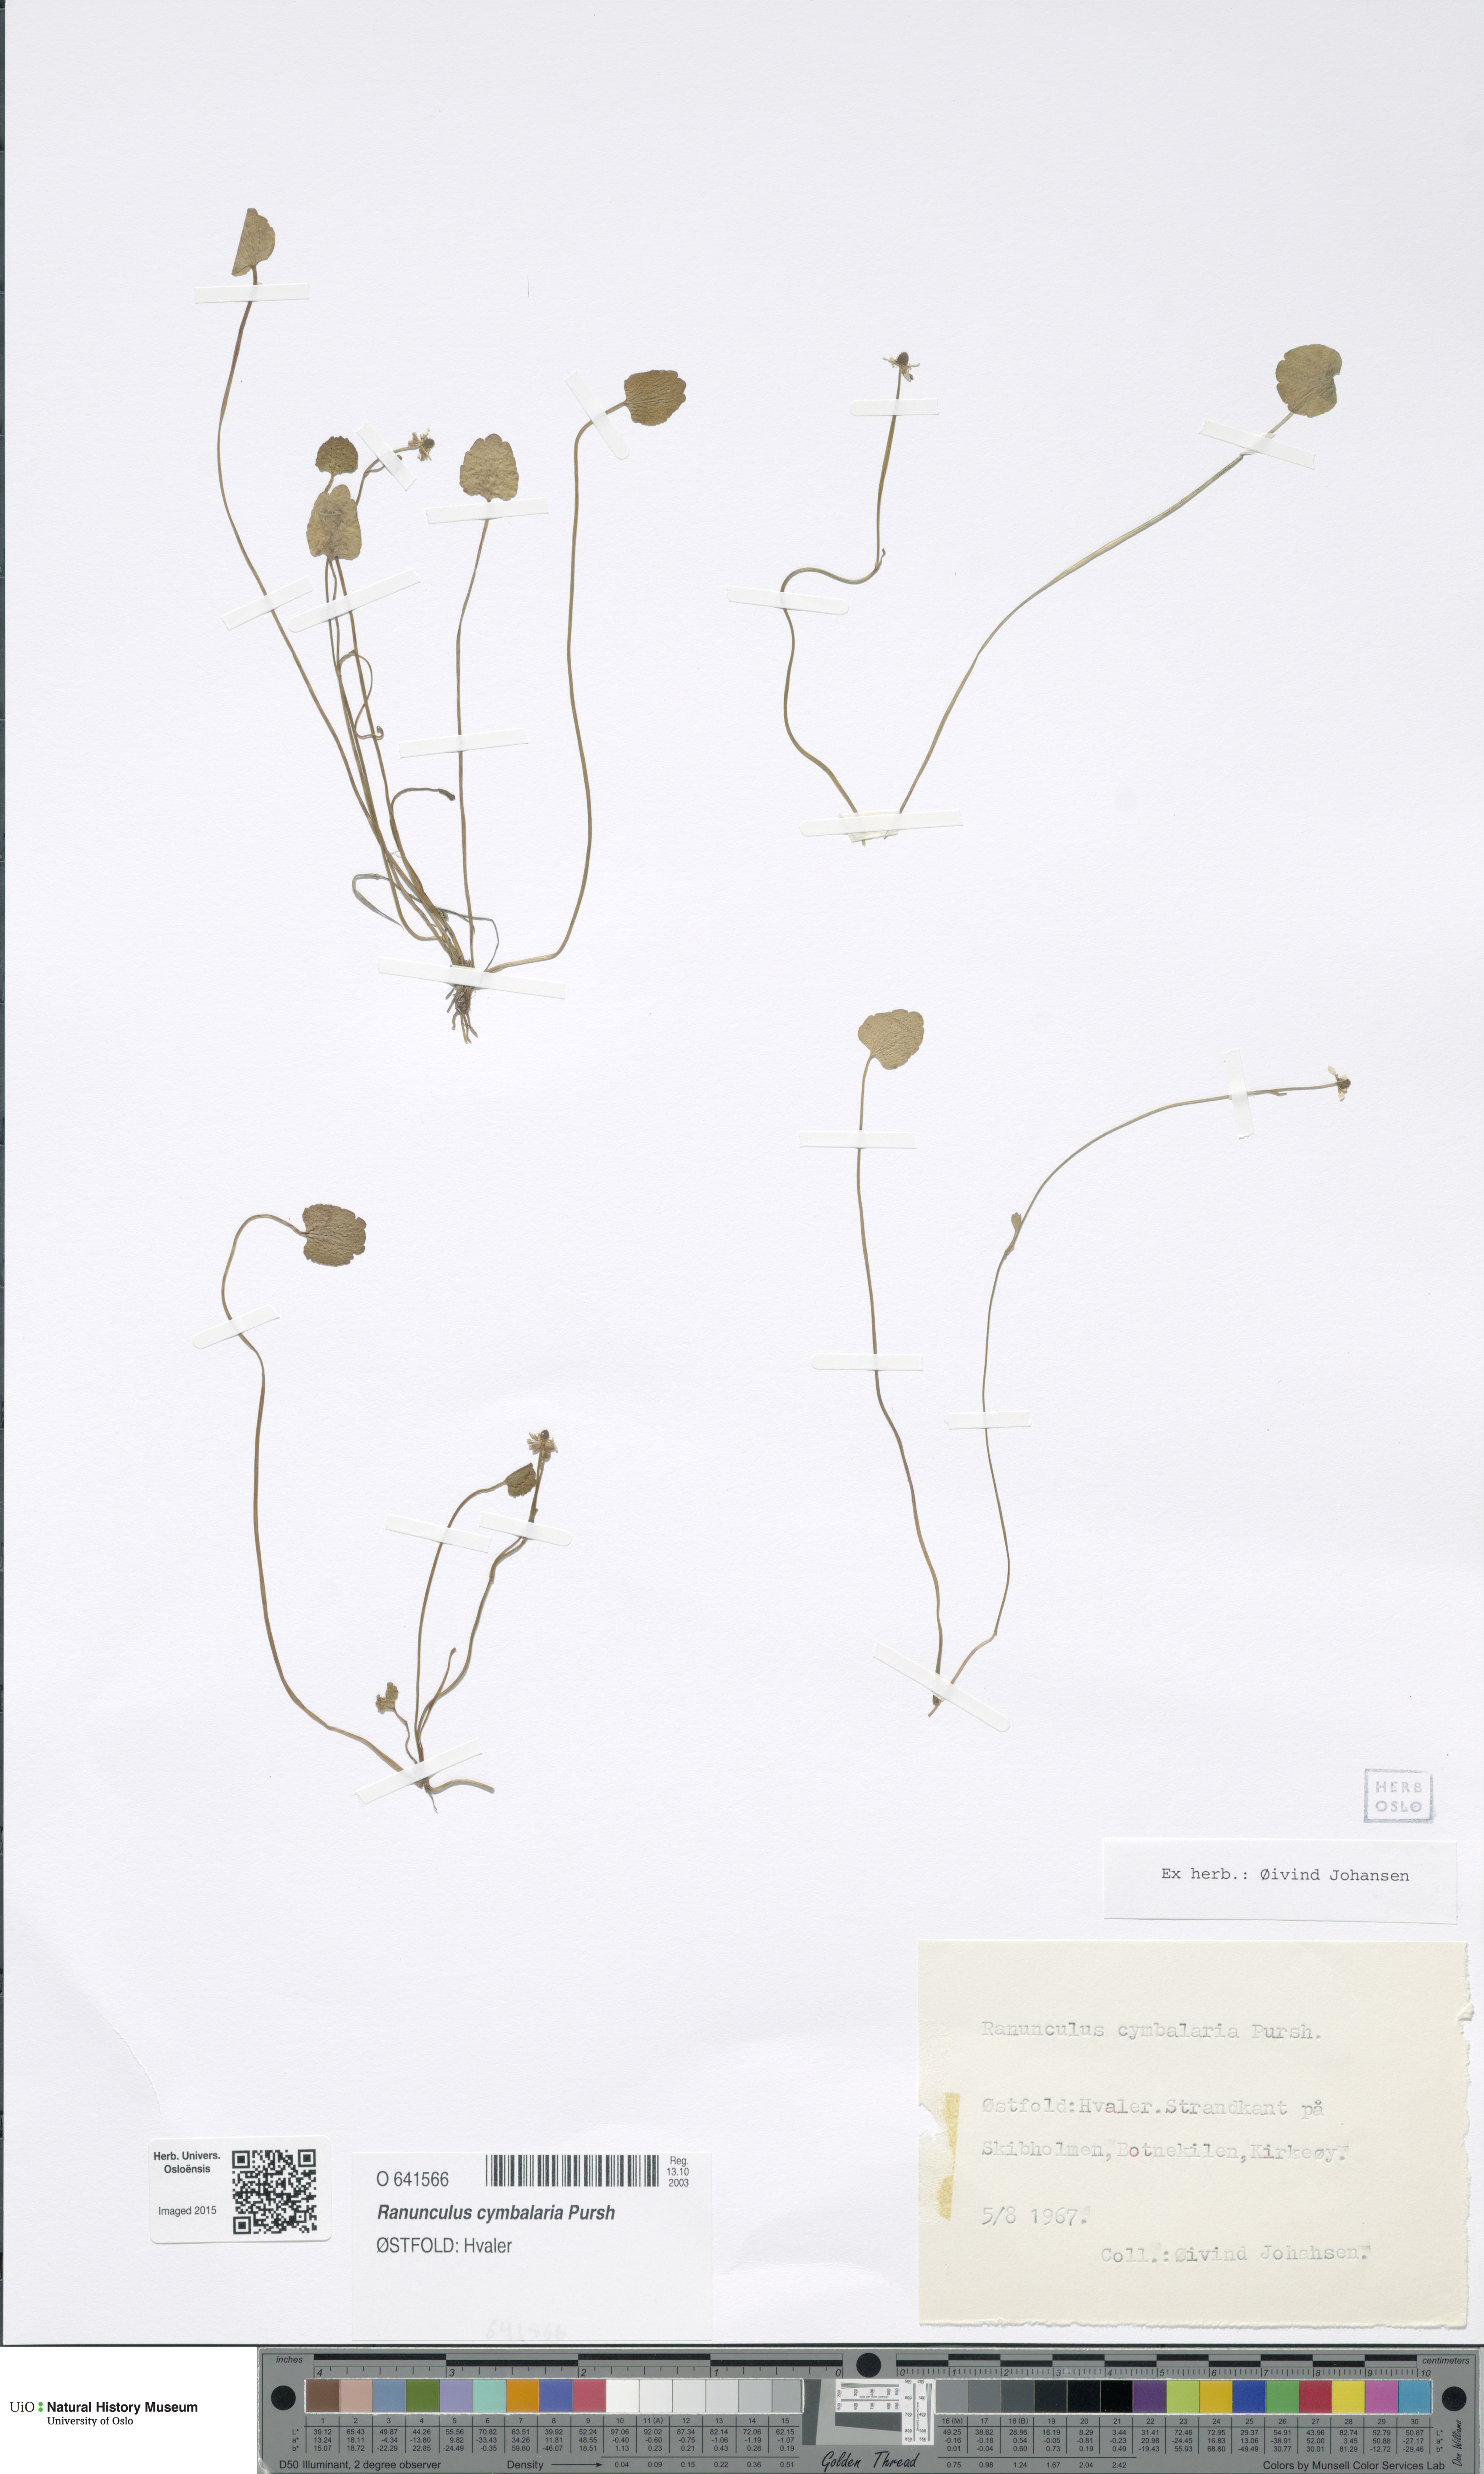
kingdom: Plantae
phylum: Tracheophyta
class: Magnoliopsida
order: Ranunculales
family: Ranunculaceae
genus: Halerpestes
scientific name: Halerpestes cymbalaria
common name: Seaside crowfoot
